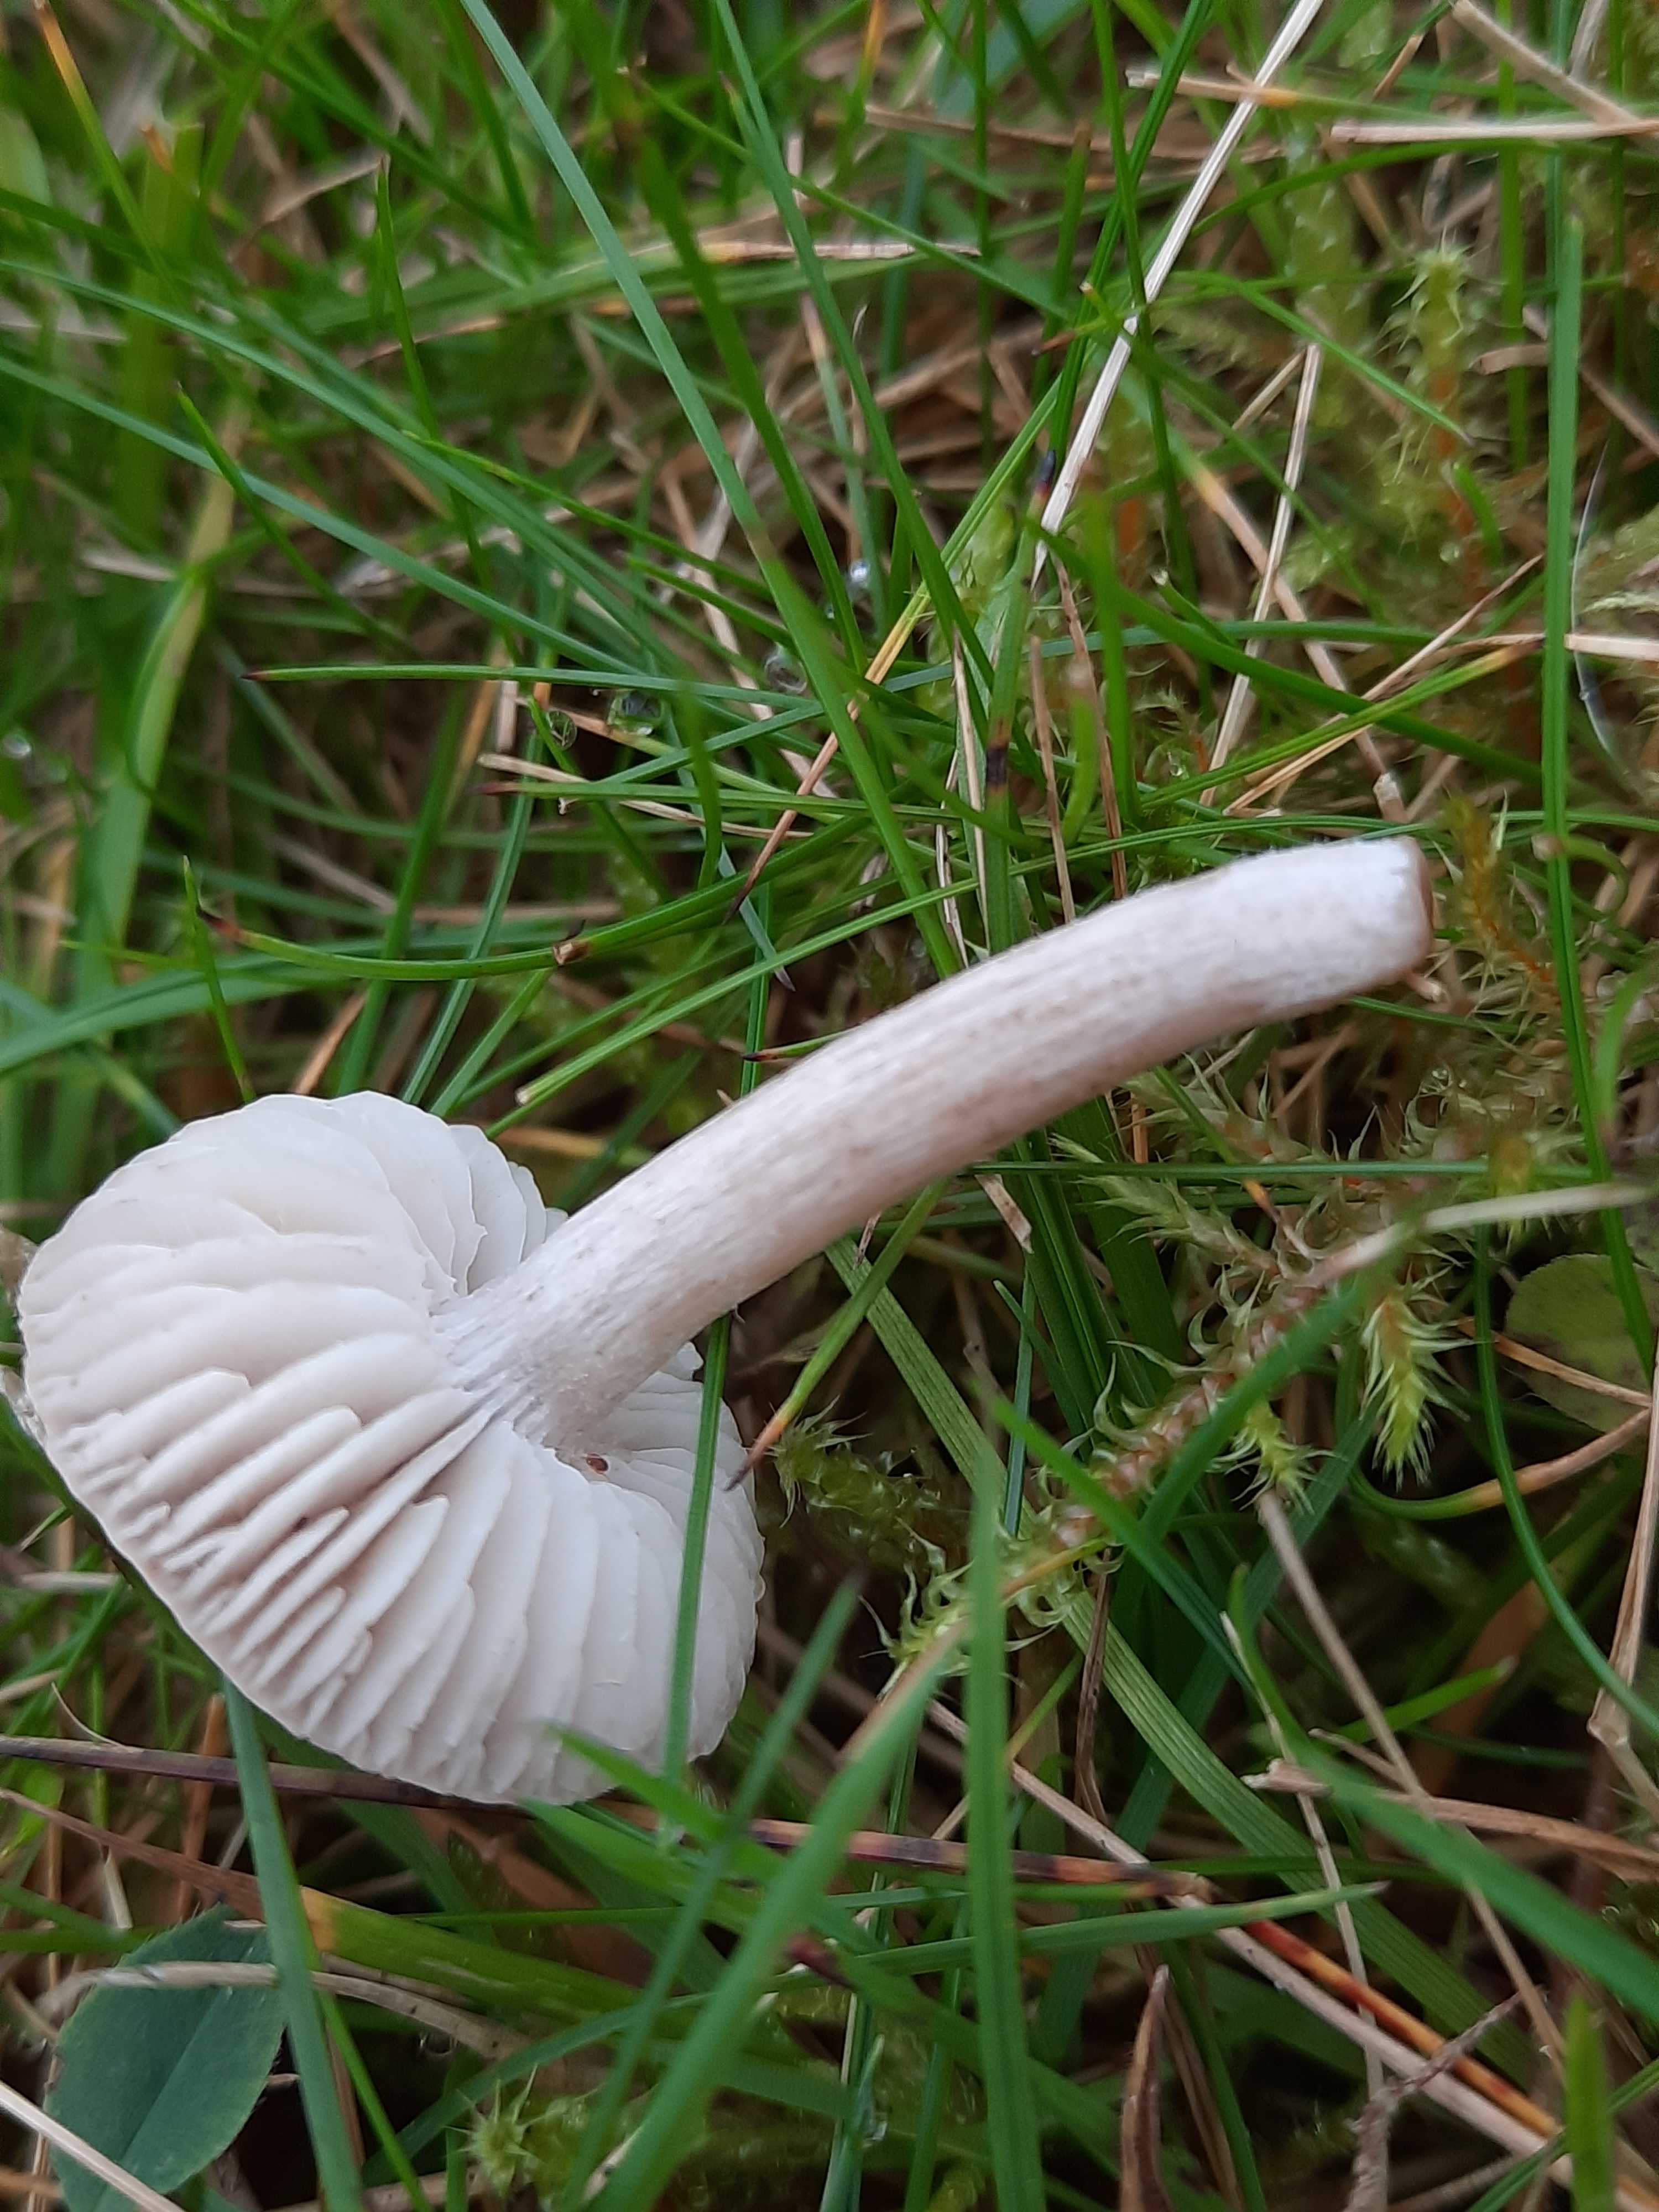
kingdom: Fungi
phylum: Basidiomycota
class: Agaricomycetes
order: Agaricales
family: Tricholomataceae
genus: Dermoloma
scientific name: Dermoloma cuneifolium
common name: eng-nonnehat
